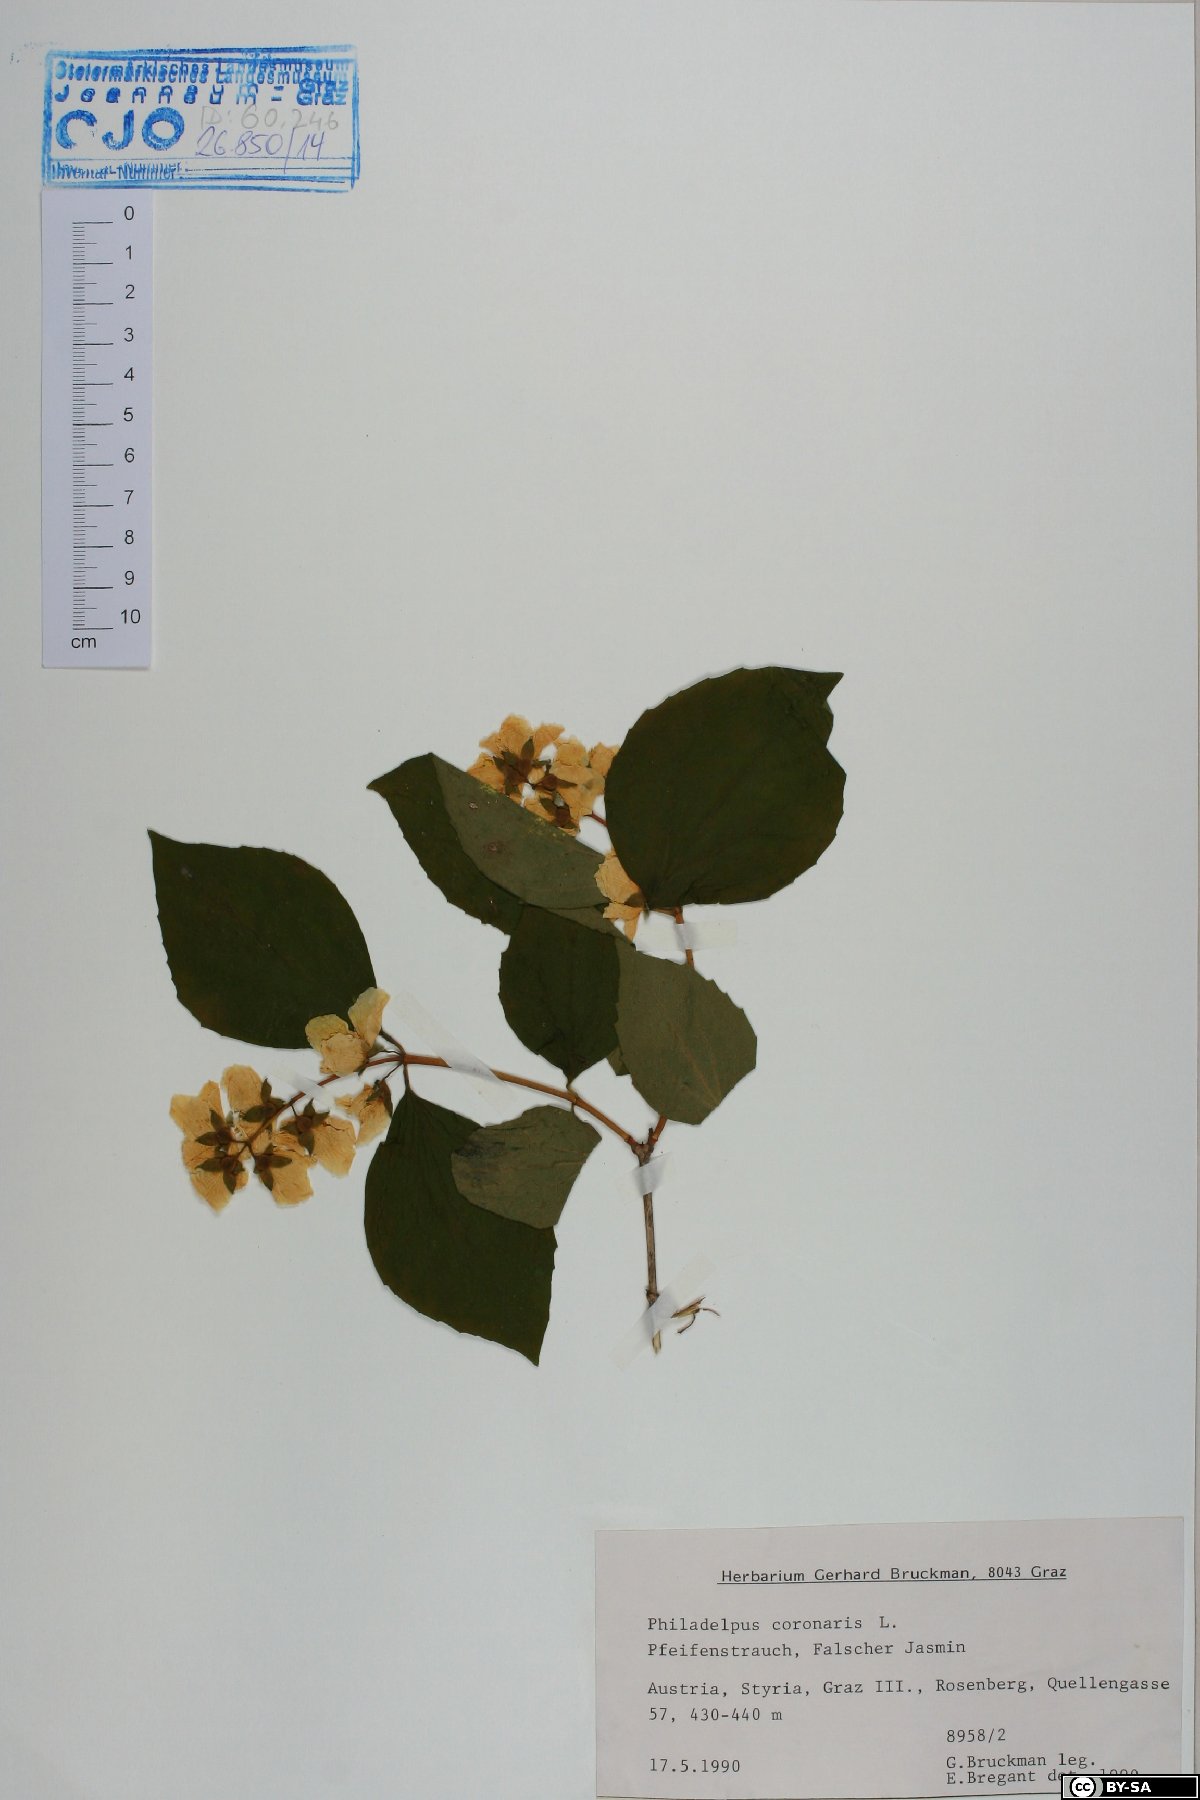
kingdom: Plantae
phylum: Tracheophyta
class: Magnoliopsida
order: Cornales
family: Hydrangeaceae
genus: Philadelphus
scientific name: Philadelphus coronarius
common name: Mock orange
